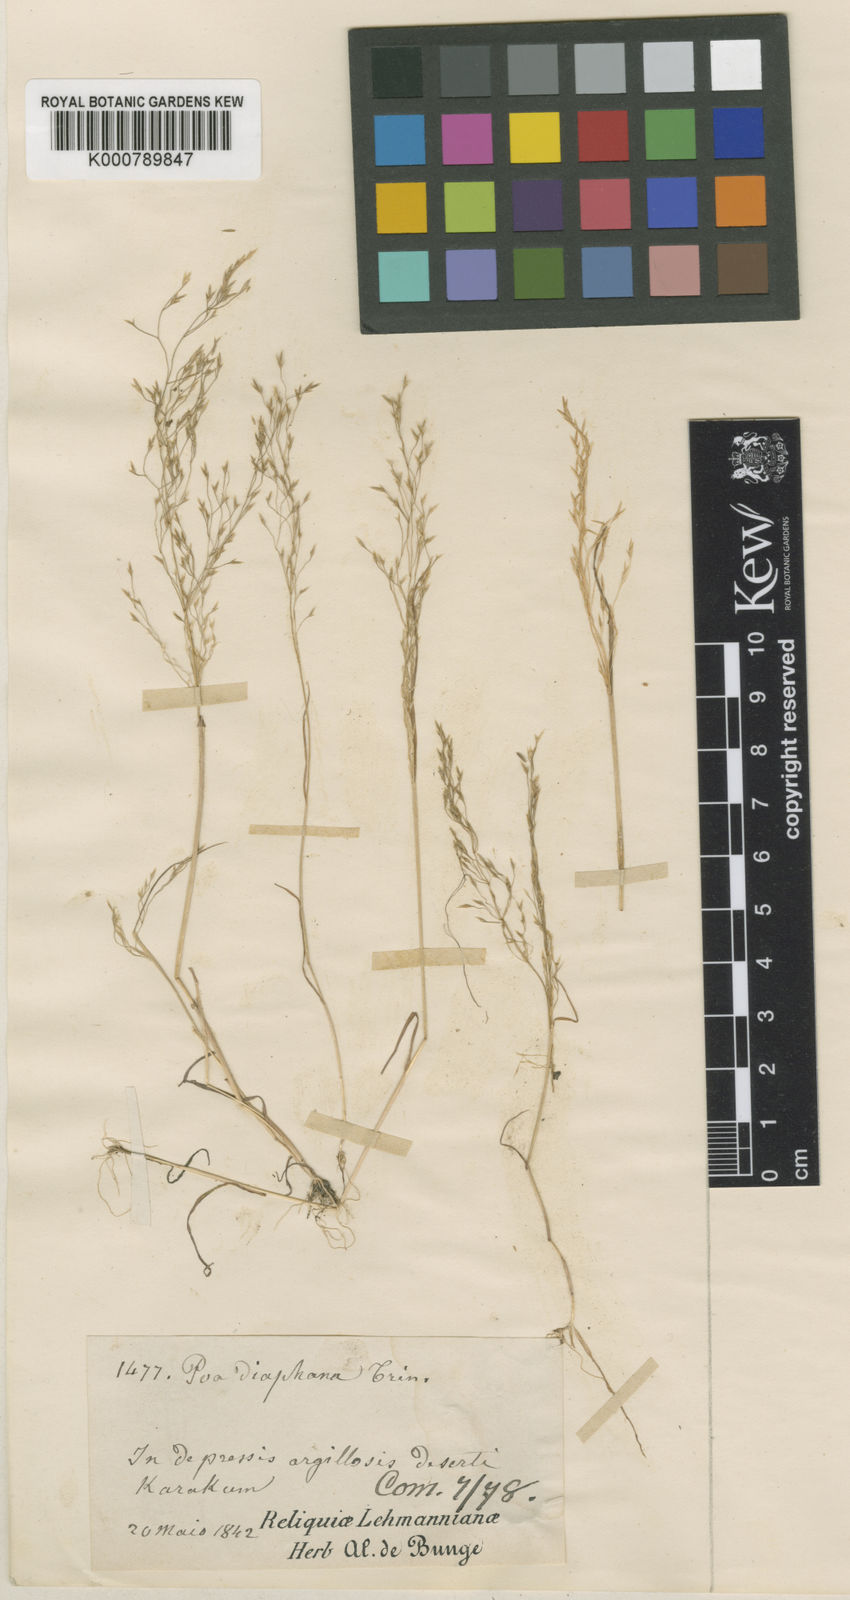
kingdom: Plantae
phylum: Tracheophyta
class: Liliopsida
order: Poales
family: Poaceae
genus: Poa
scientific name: Poa diaphora
